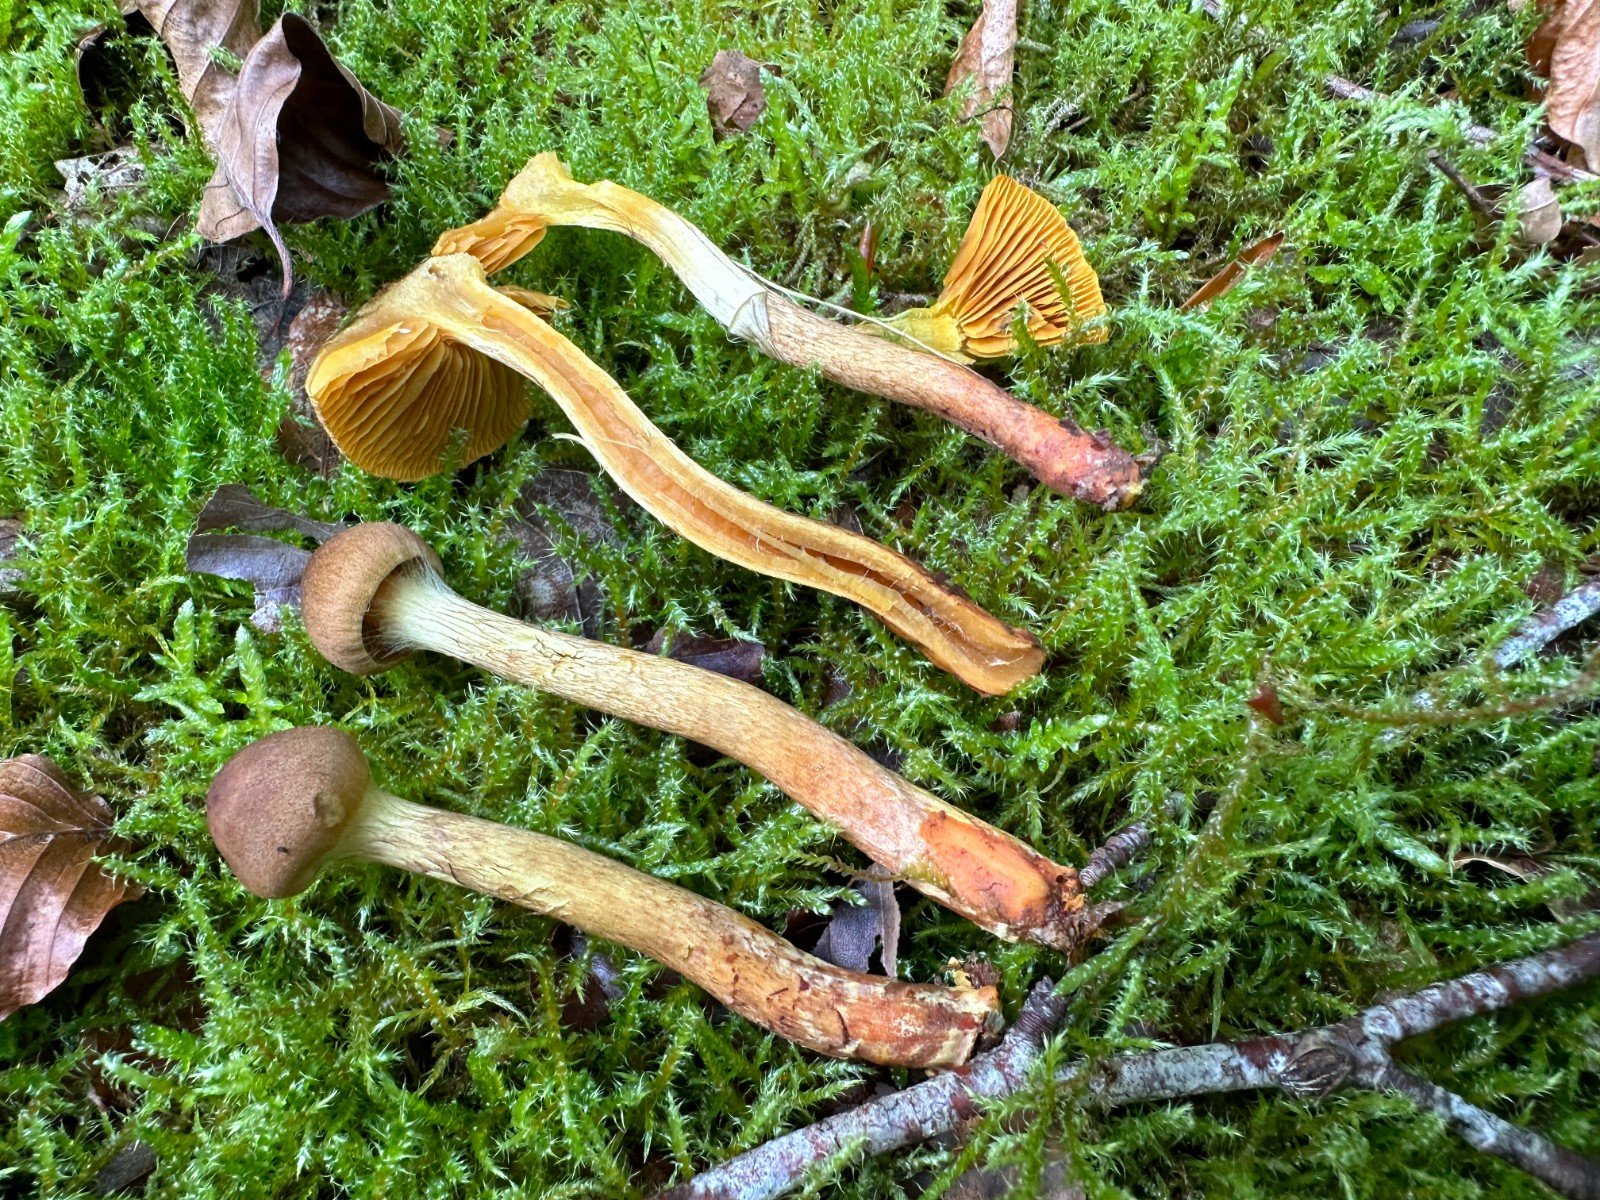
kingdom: Fungi
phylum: Basidiomycota
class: Agaricomycetes
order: Agaricales
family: Cortinariaceae
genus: Cortinarius
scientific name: Cortinarius bataillei
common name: orangefodet slørhat
